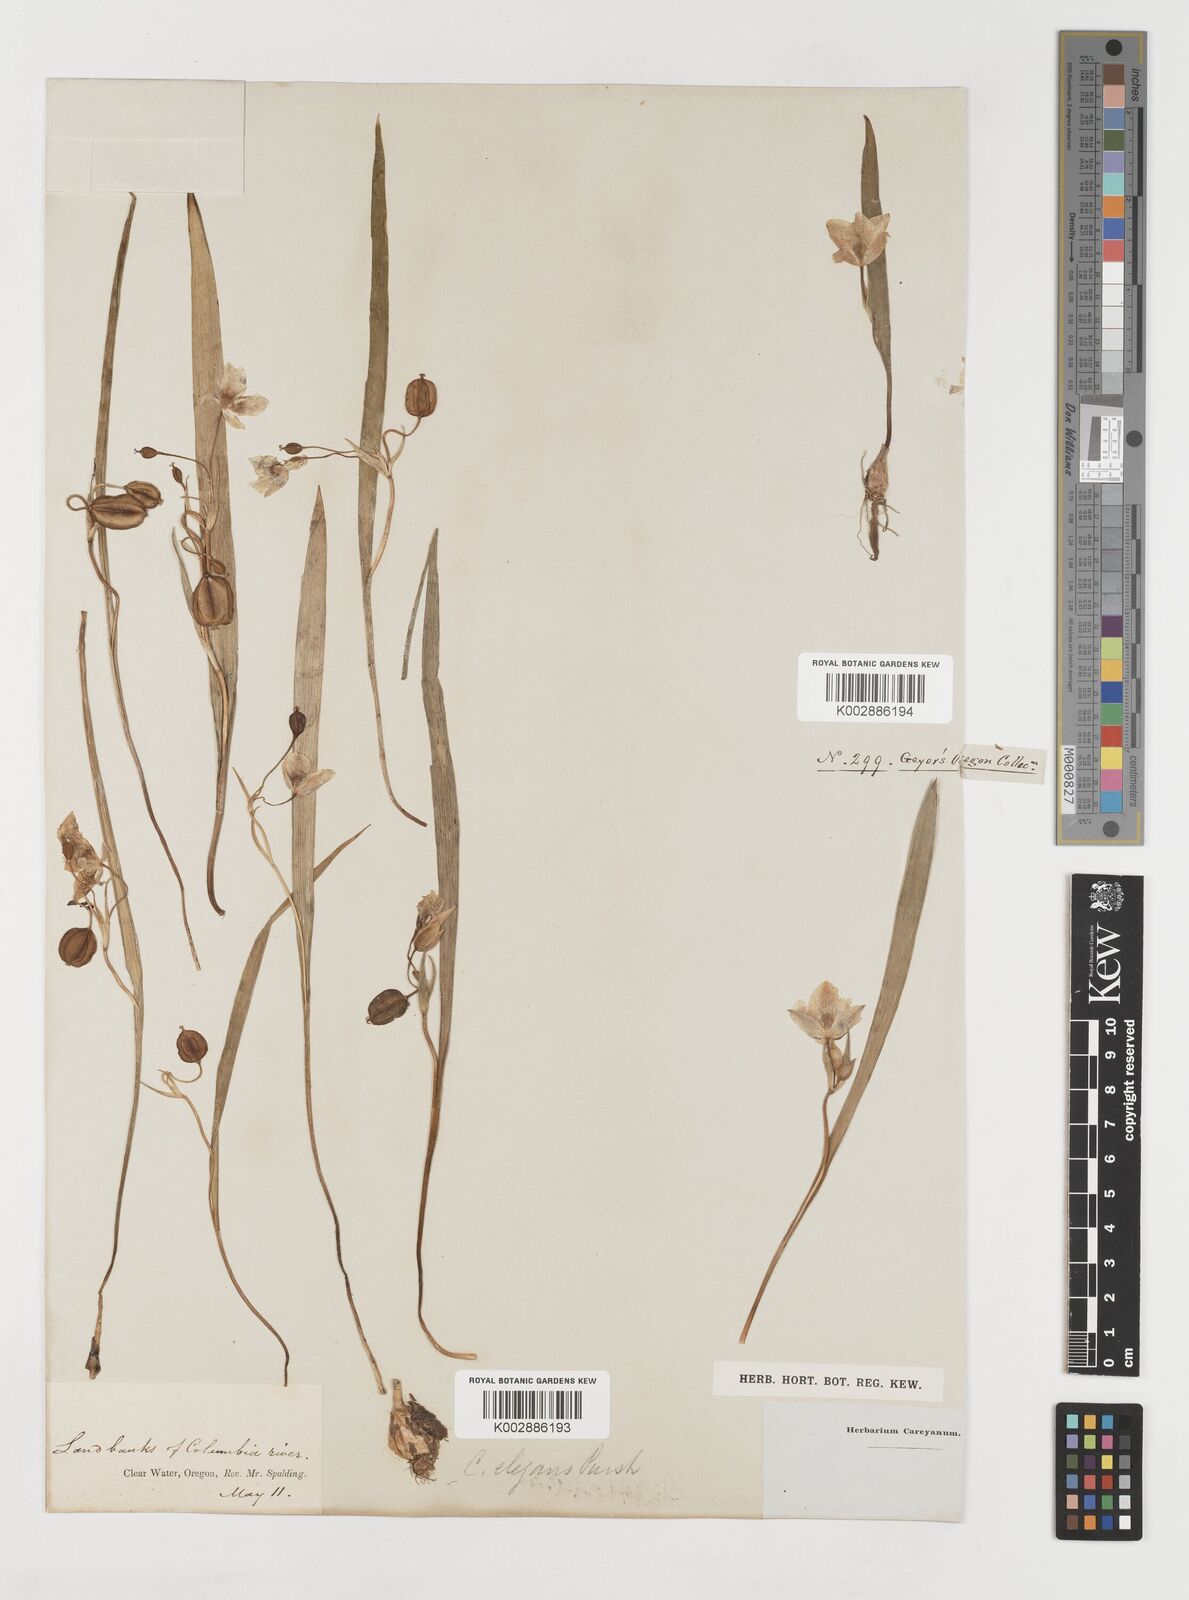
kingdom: Plantae
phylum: Tracheophyta
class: Liliopsida
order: Liliales
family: Liliaceae
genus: Calochortus
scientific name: Calochortus elegans
